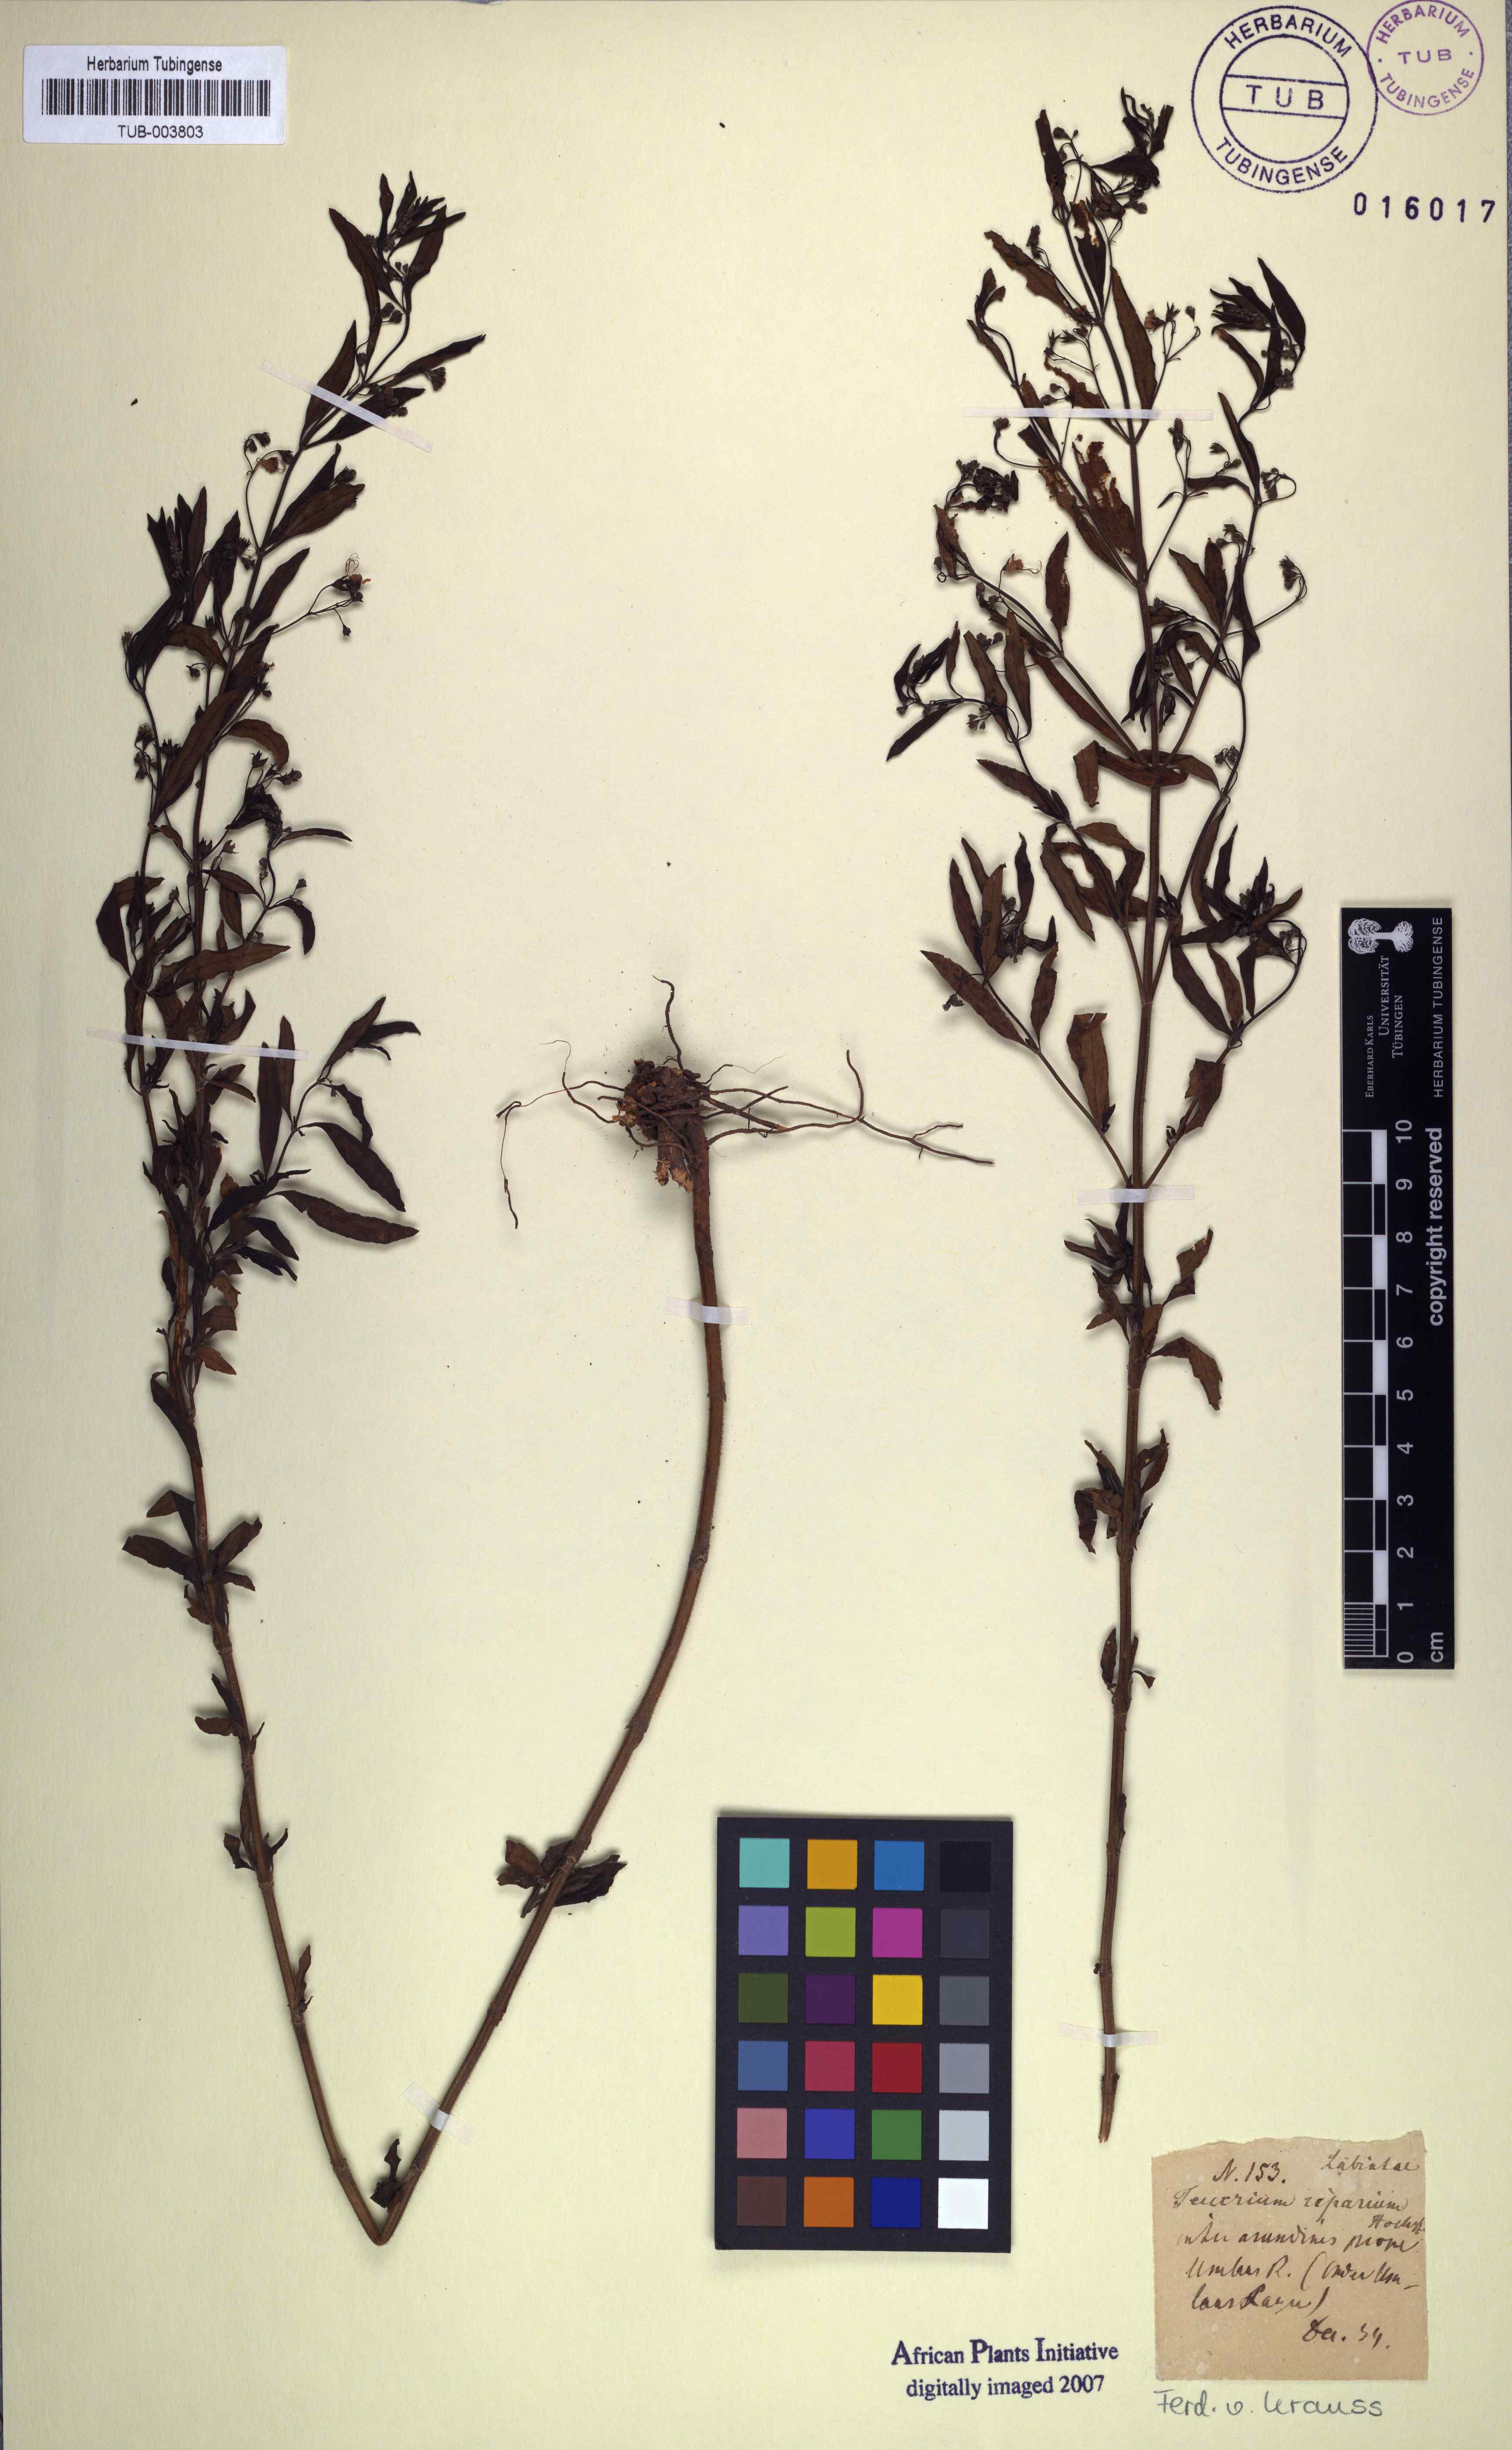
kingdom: Plantae
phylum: Tracheophyta
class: Magnoliopsida
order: Lamiales
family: Lamiaceae
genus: Teucrium
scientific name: Teucrium kraussii
